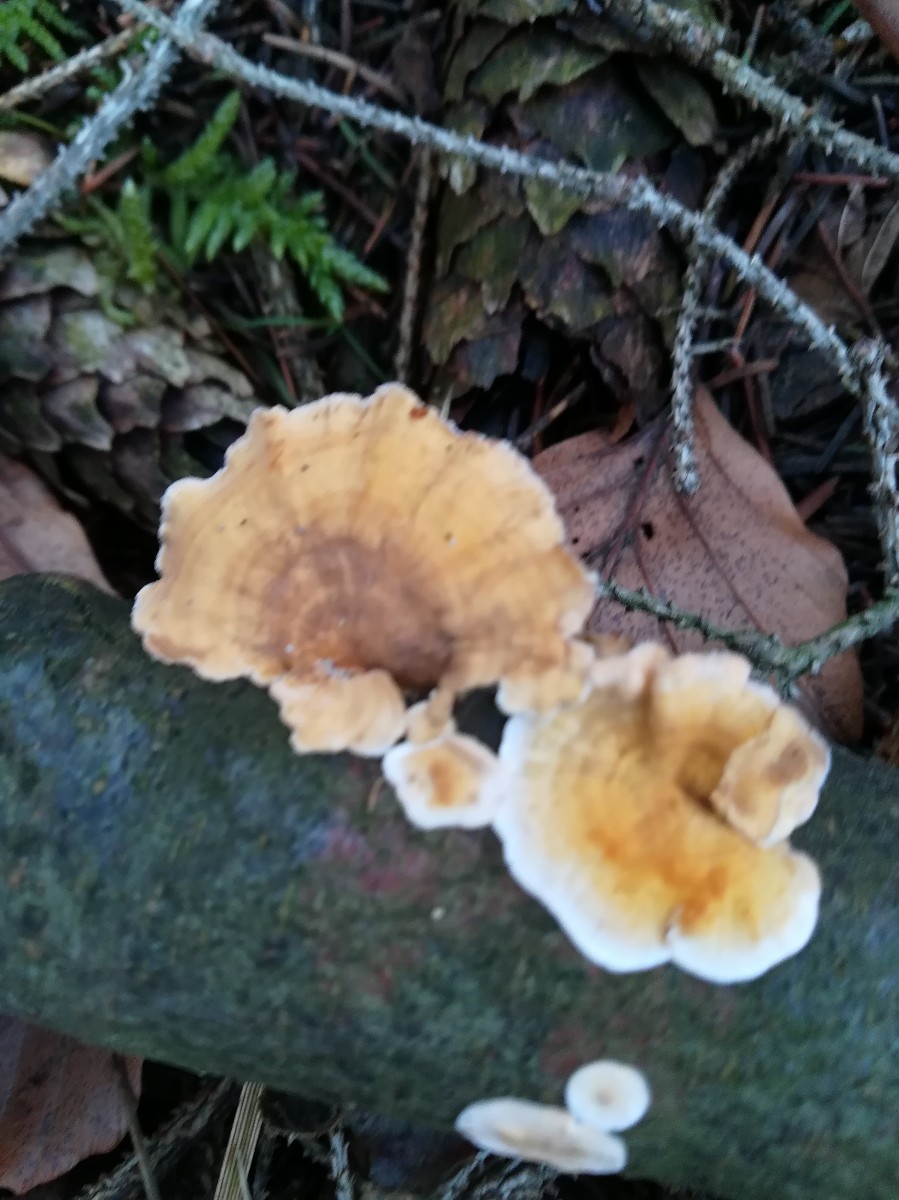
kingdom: Fungi
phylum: Basidiomycota
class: Agaricomycetes
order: Russulales
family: Stereaceae
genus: Stereum
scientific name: Stereum hirsutum
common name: håret lædersvamp
